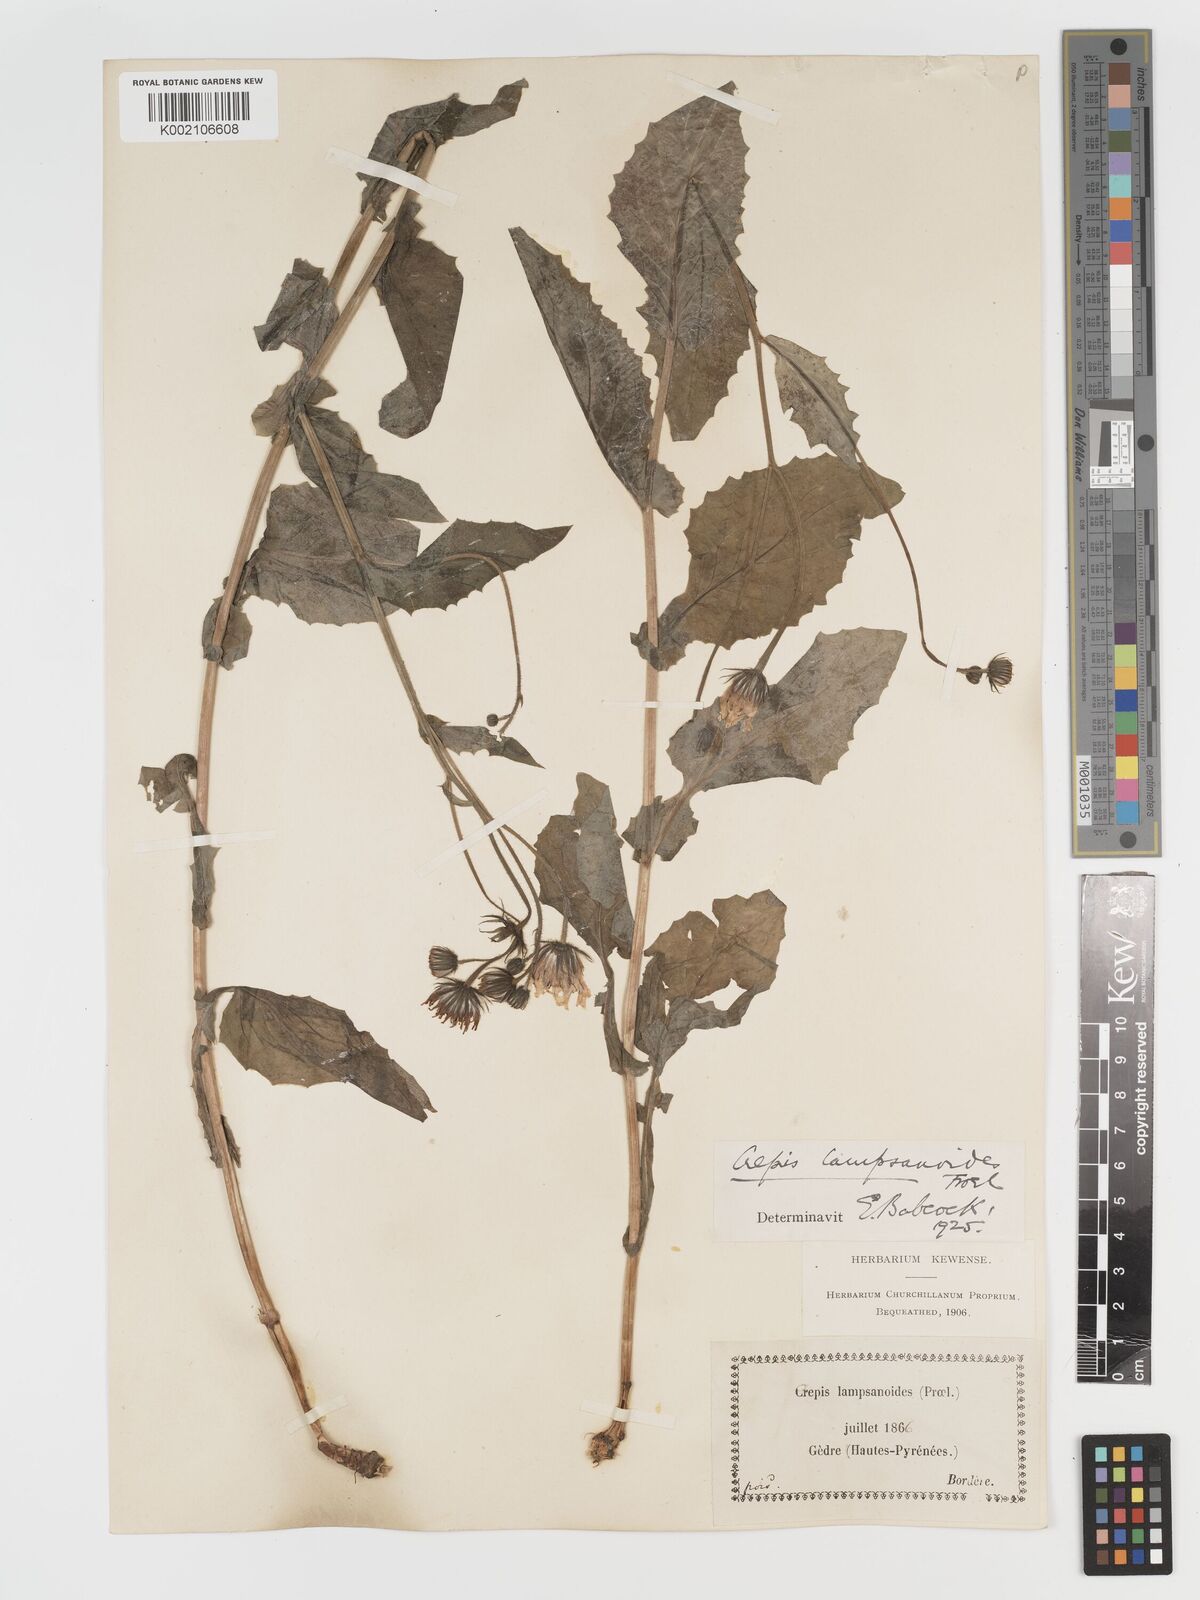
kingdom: Plantae
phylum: Tracheophyta
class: Magnoliopsida
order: Asterales
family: Asteraceae
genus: Crepis
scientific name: Crepis lampsanoides
